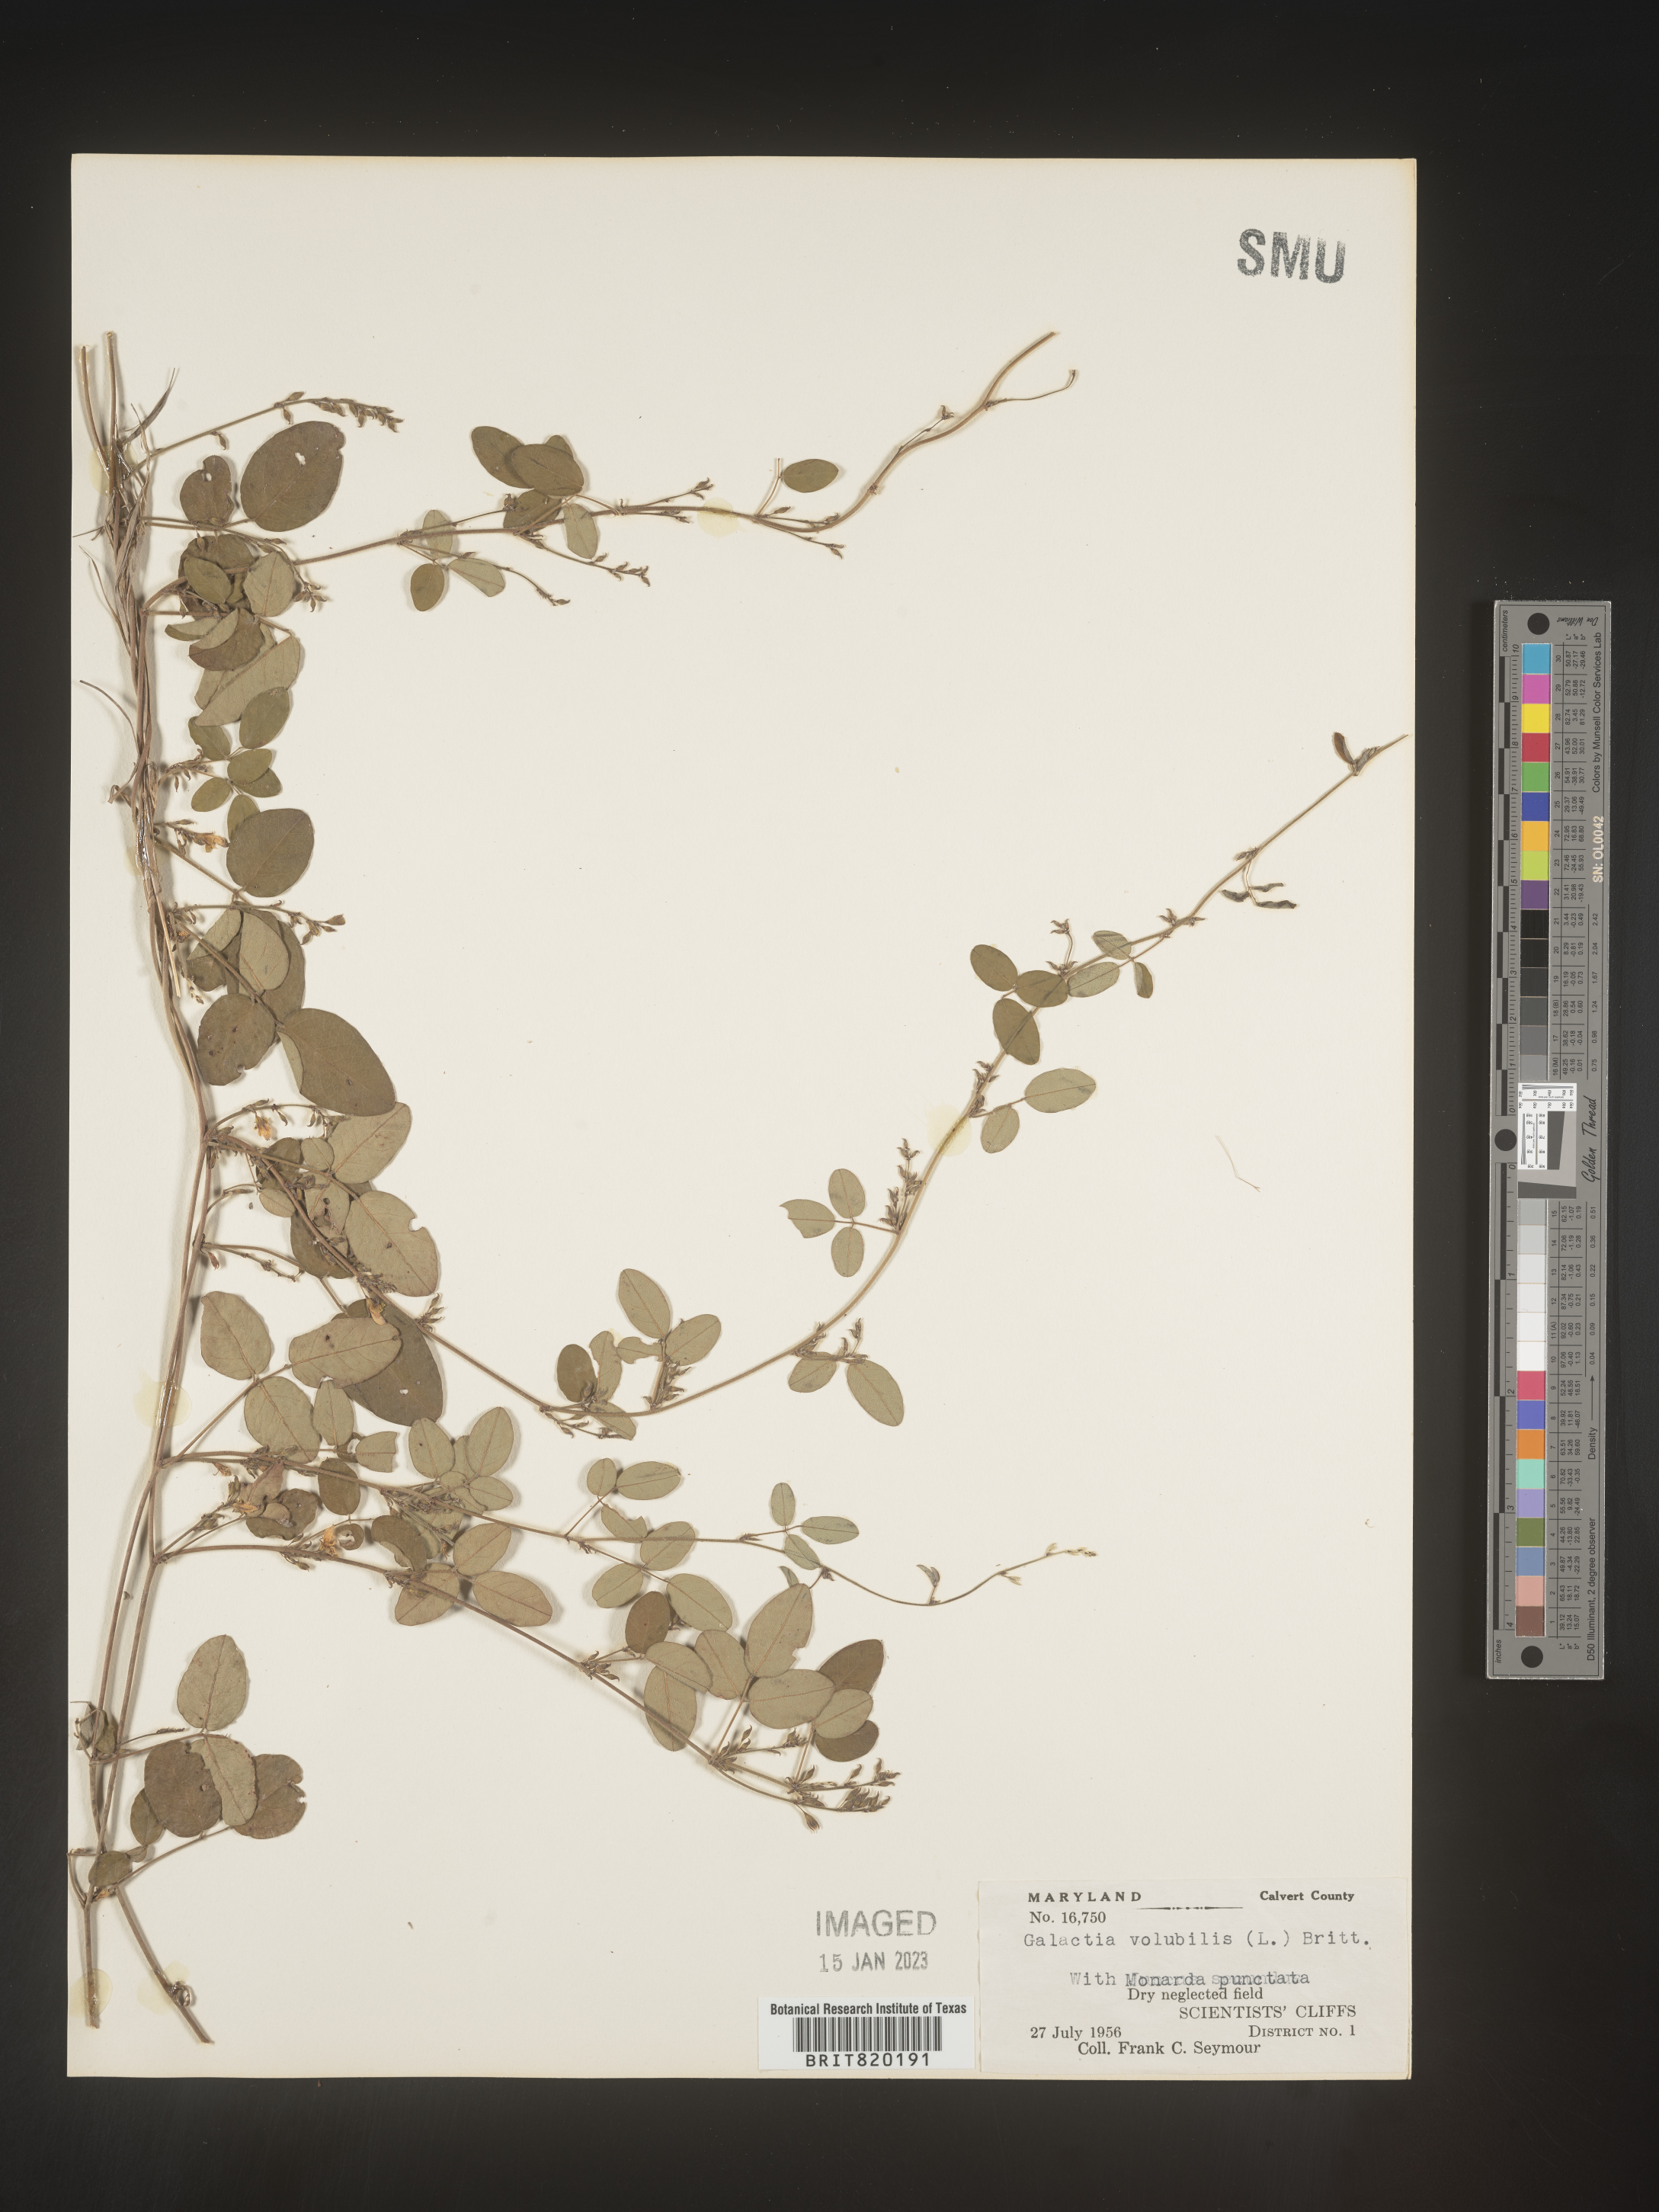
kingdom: Plantae
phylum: Tracheophyta
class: Magnoliopsida
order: Fabales
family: Fabaceae
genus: Galactia
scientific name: Galactia volubilis
